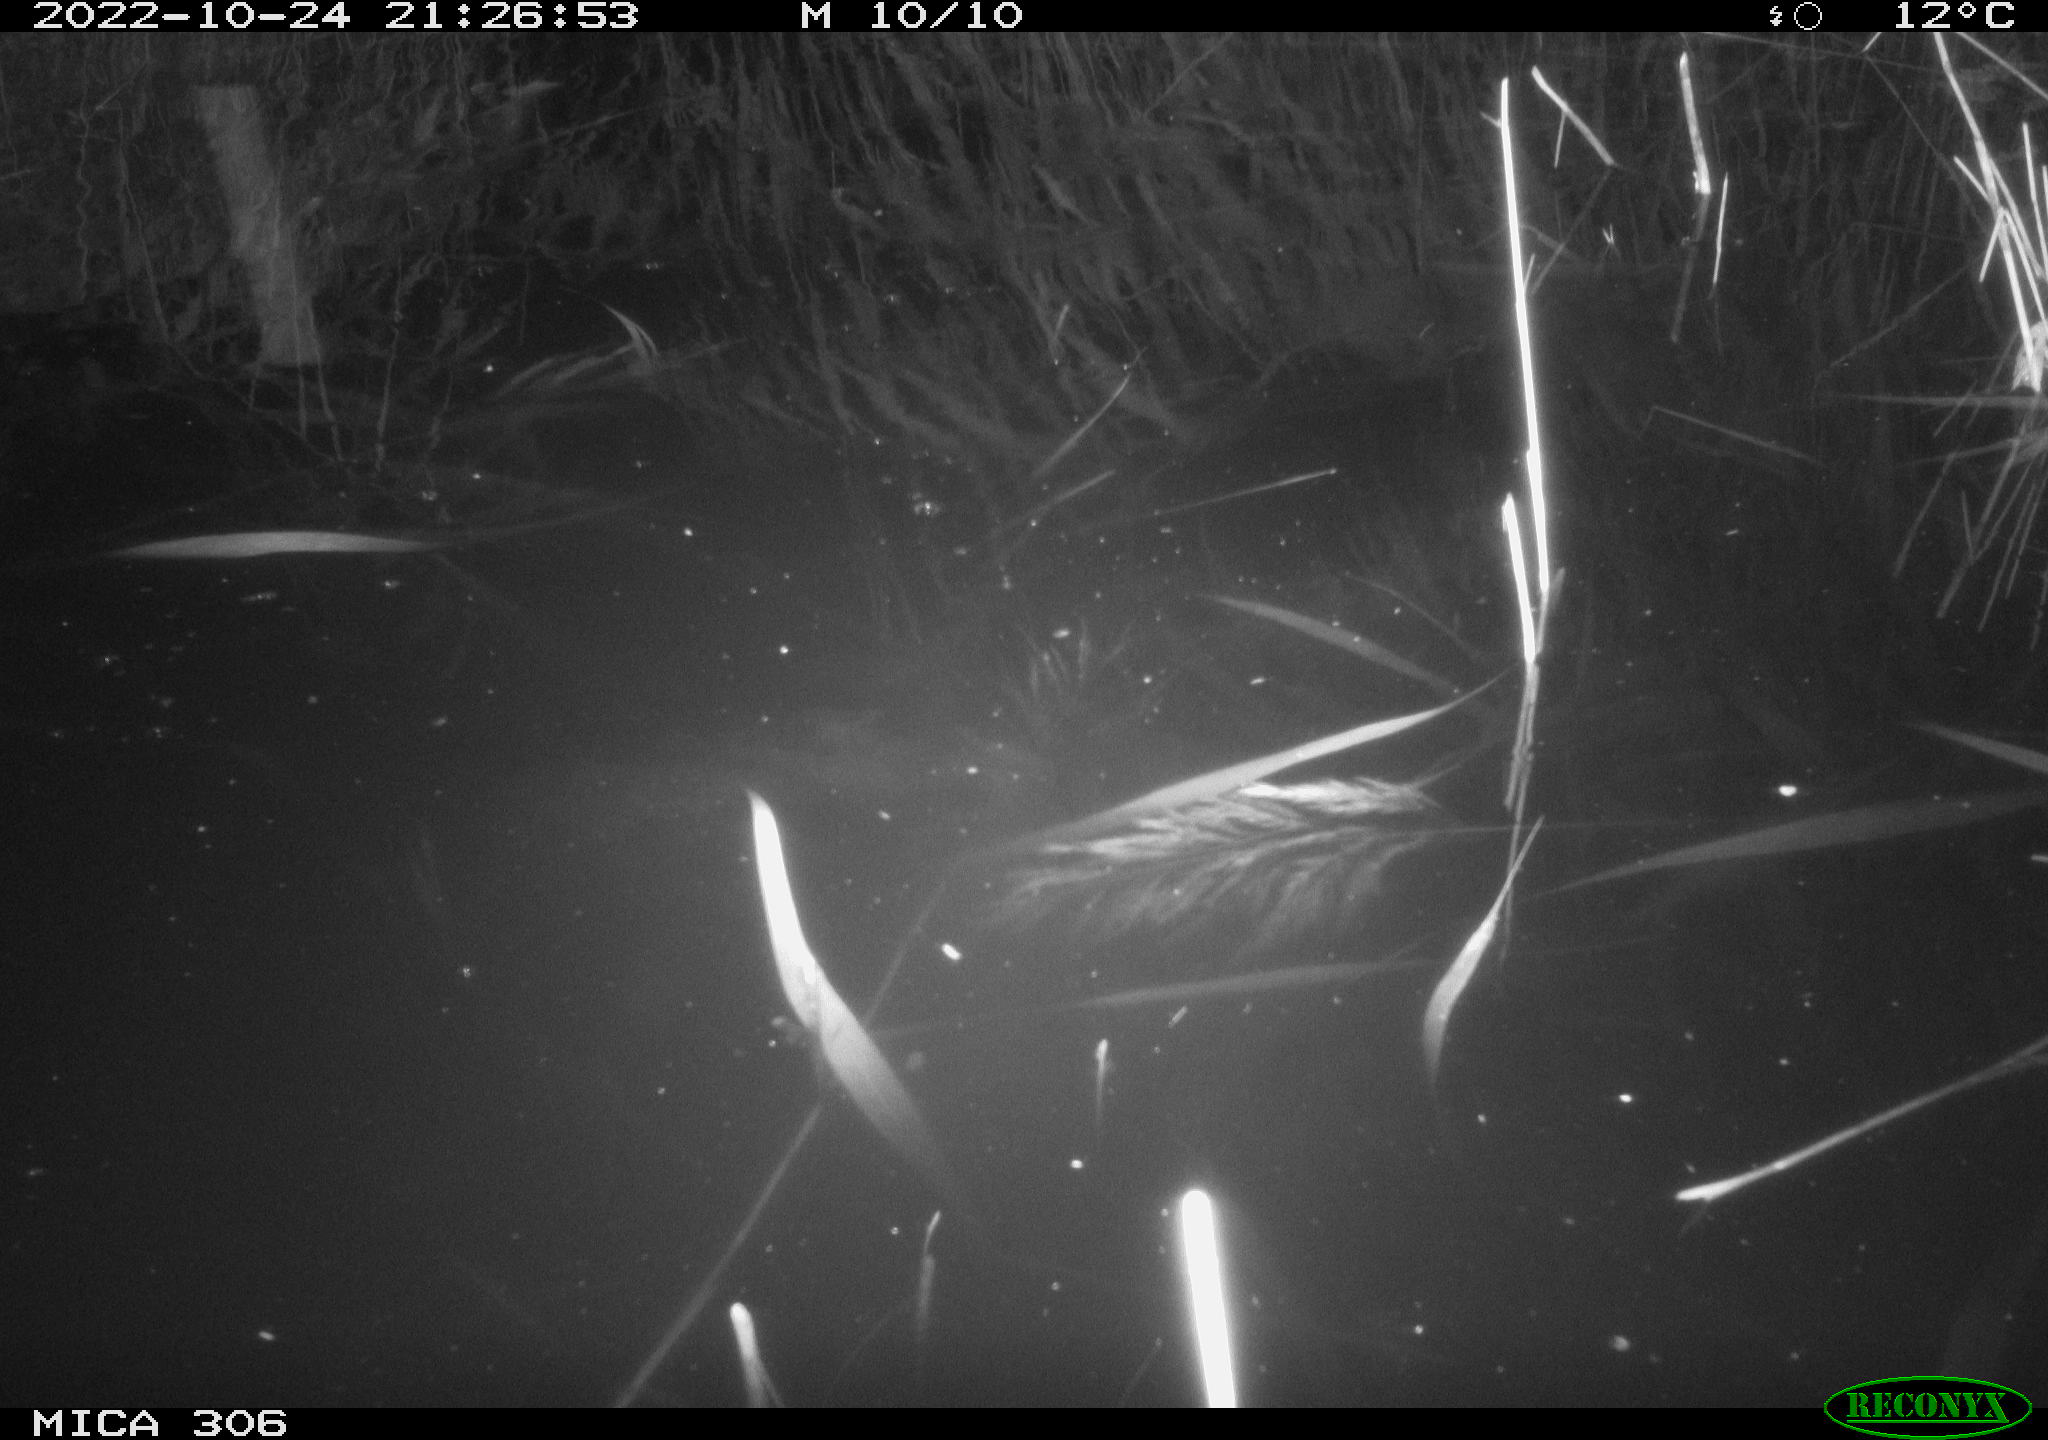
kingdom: Animalia
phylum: Chordata
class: Mammalia
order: Rodentia
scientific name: Rodentia
